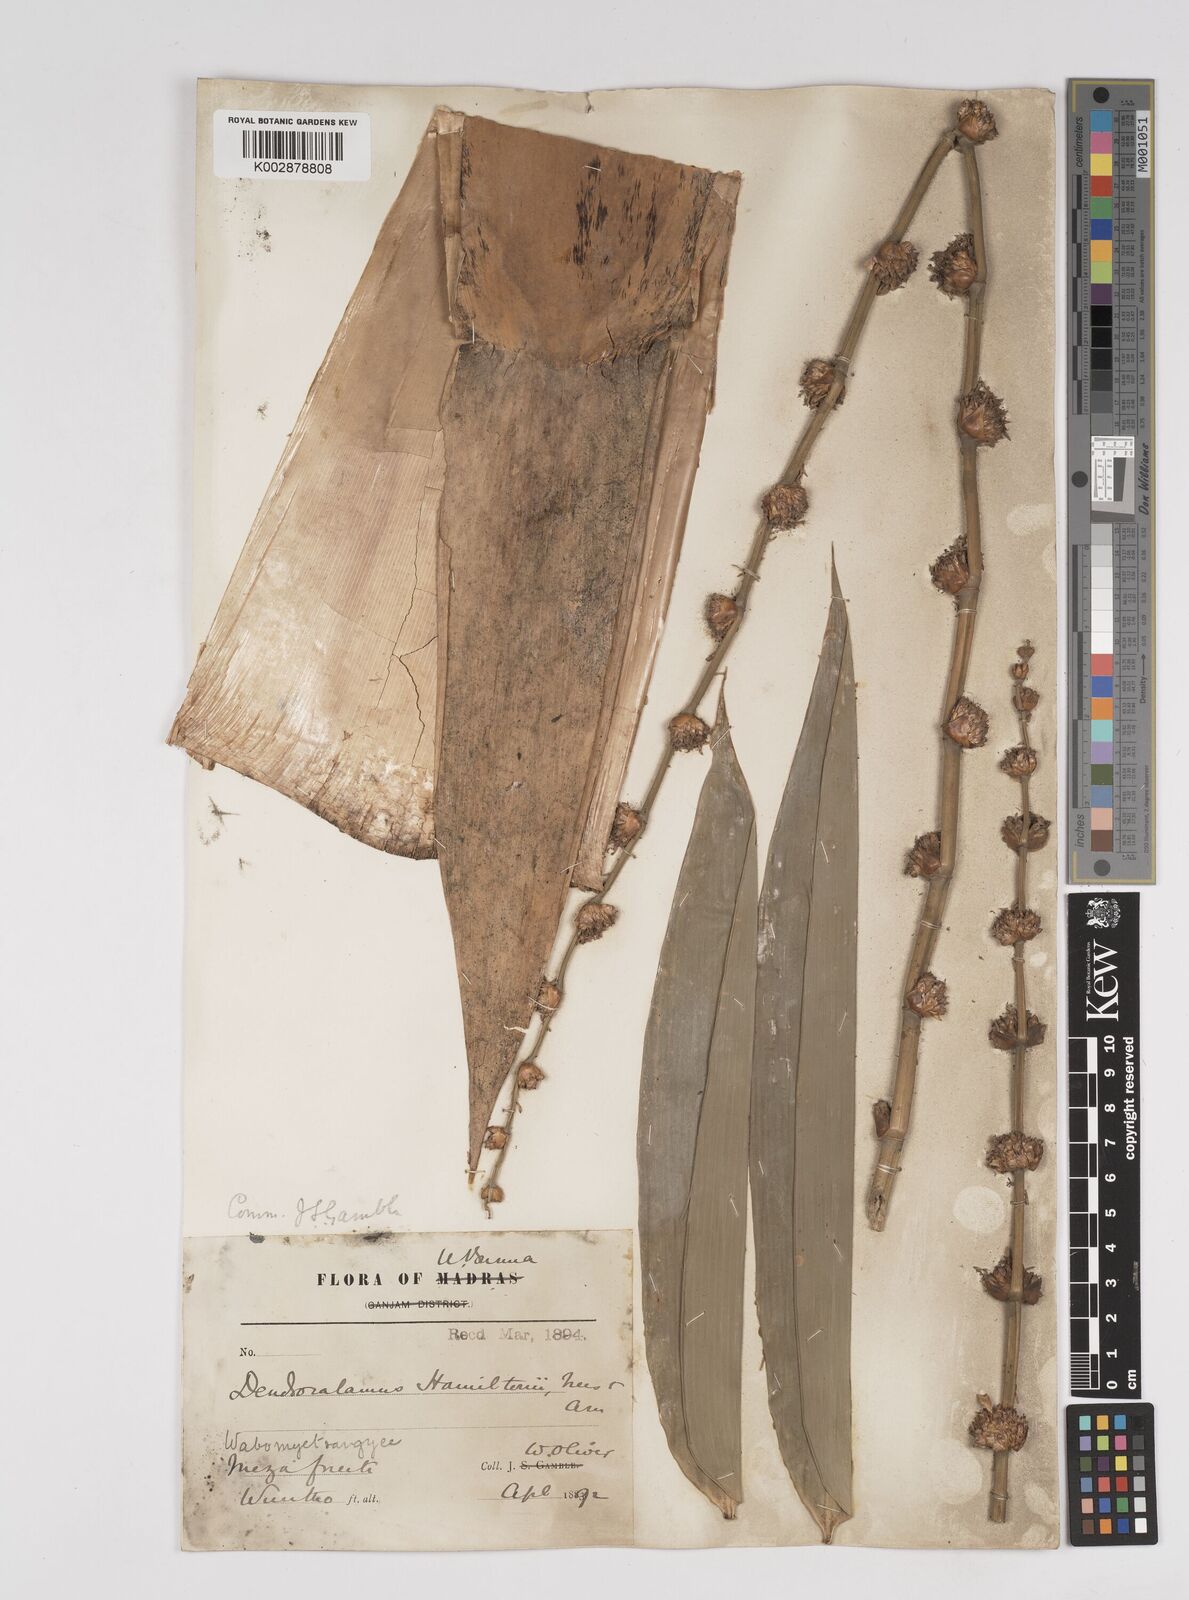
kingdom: Plantae
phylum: Tracheophyta
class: Liliopsida
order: Poales
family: Poaceae
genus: Dendrocalamus
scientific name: Dendrocalamus hamiltonii
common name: Tama bamboo
